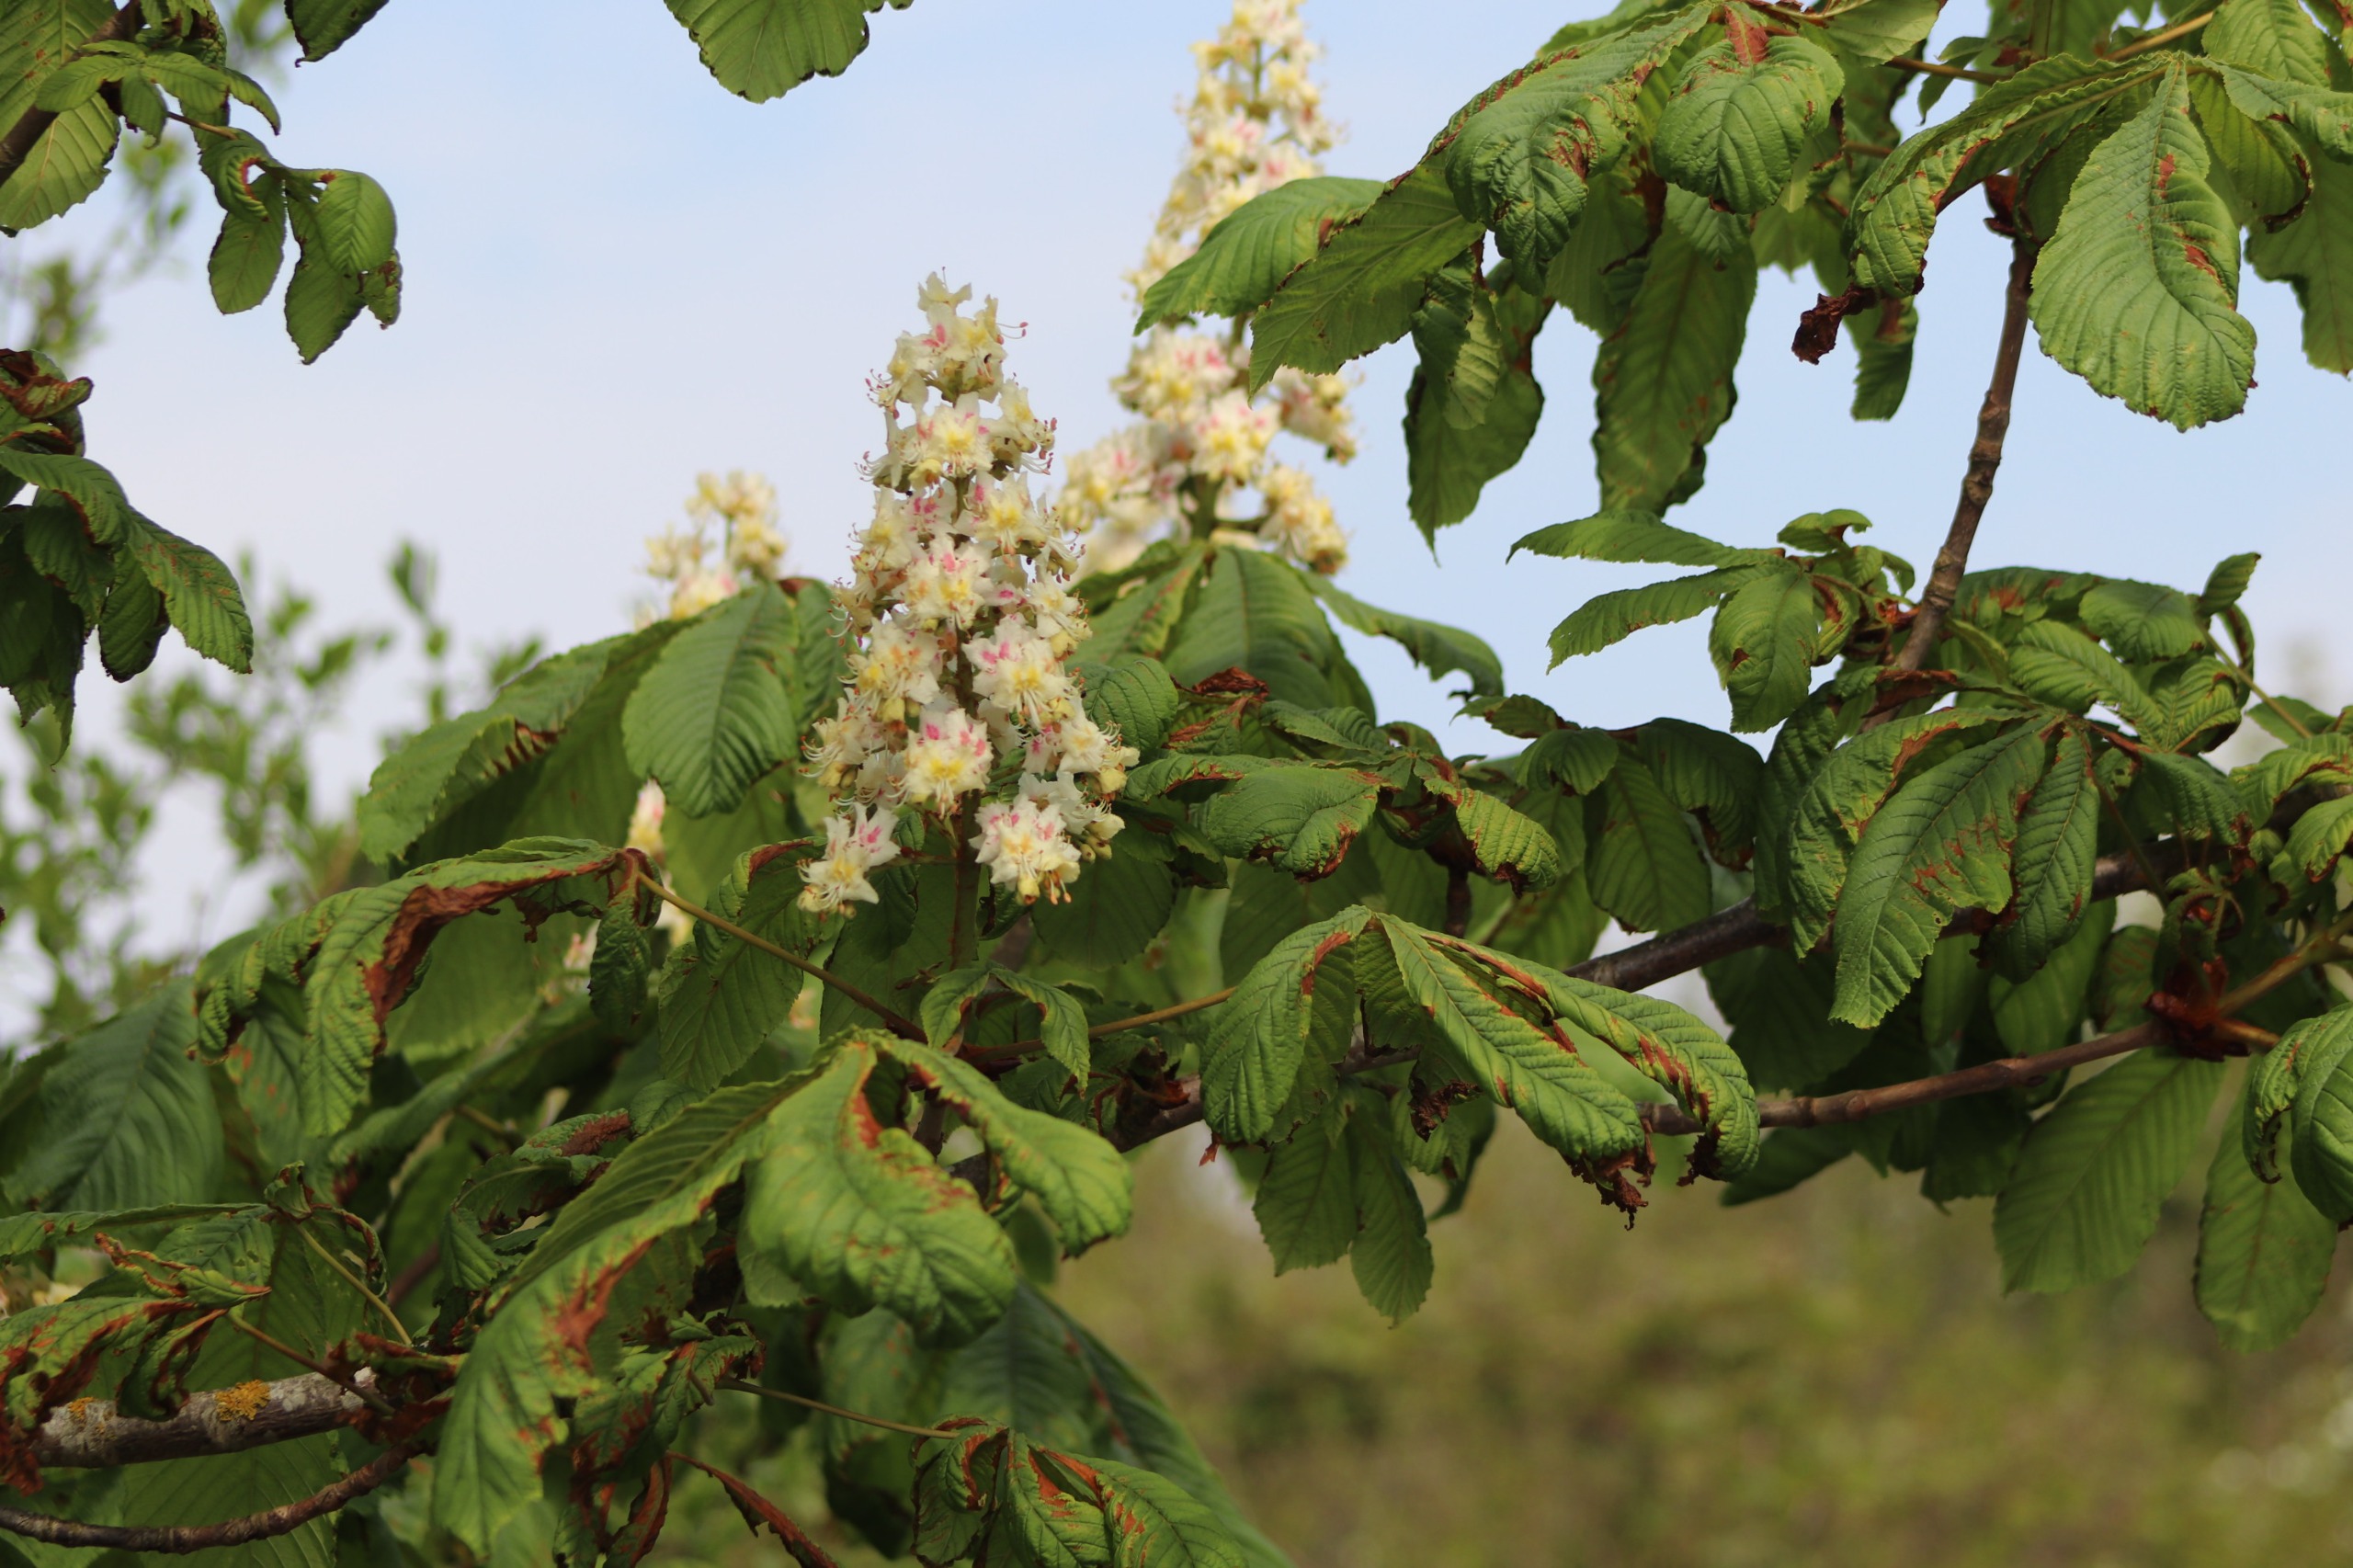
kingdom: Plantae
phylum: Tracheophyta
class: Magnoliopsida
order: Sapindales
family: Sapindaceae
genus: Aesculus
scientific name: Aesculus hippocastanum
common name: Hestekastanie
